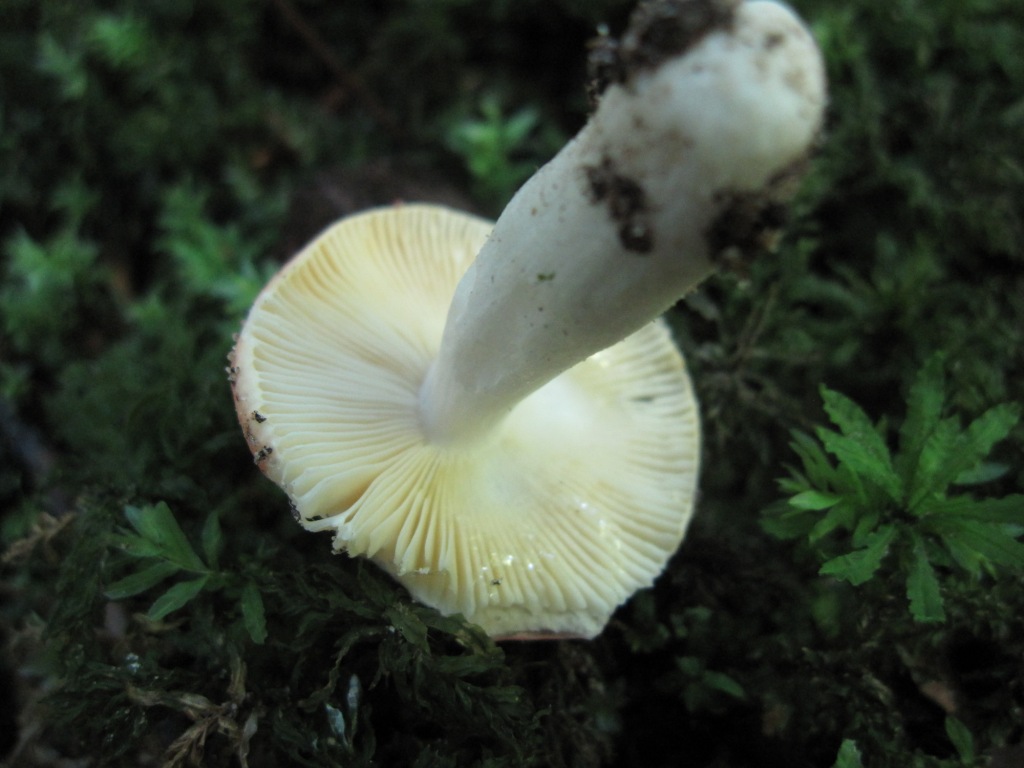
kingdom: Fungi
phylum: Basidiomycota
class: Agaricomycetes
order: Russulales
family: Russulaceae
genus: Russula
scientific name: Russula risigallina
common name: abrikos-skørhat
